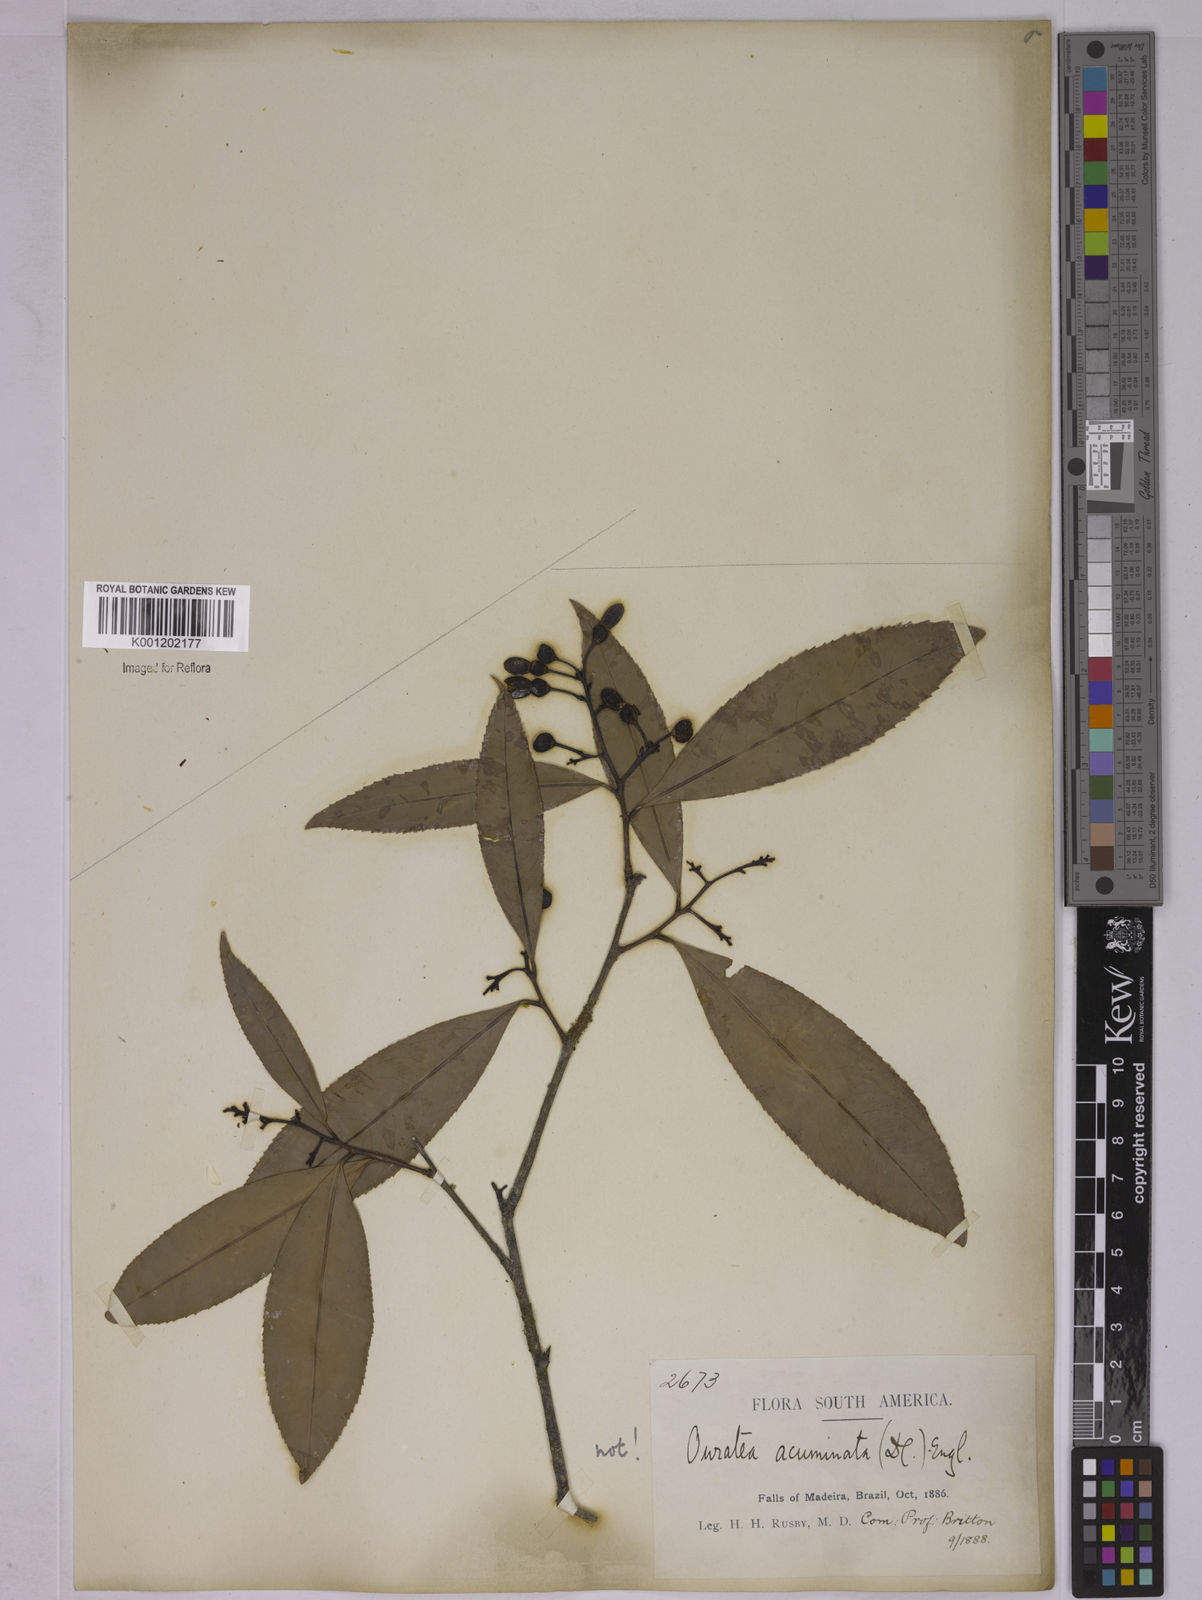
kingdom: Plantae
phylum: Tracheophyta
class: Magnoliopsida
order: Malpighiales
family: Ochnaceae
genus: Ouratea
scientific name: Ouratea
